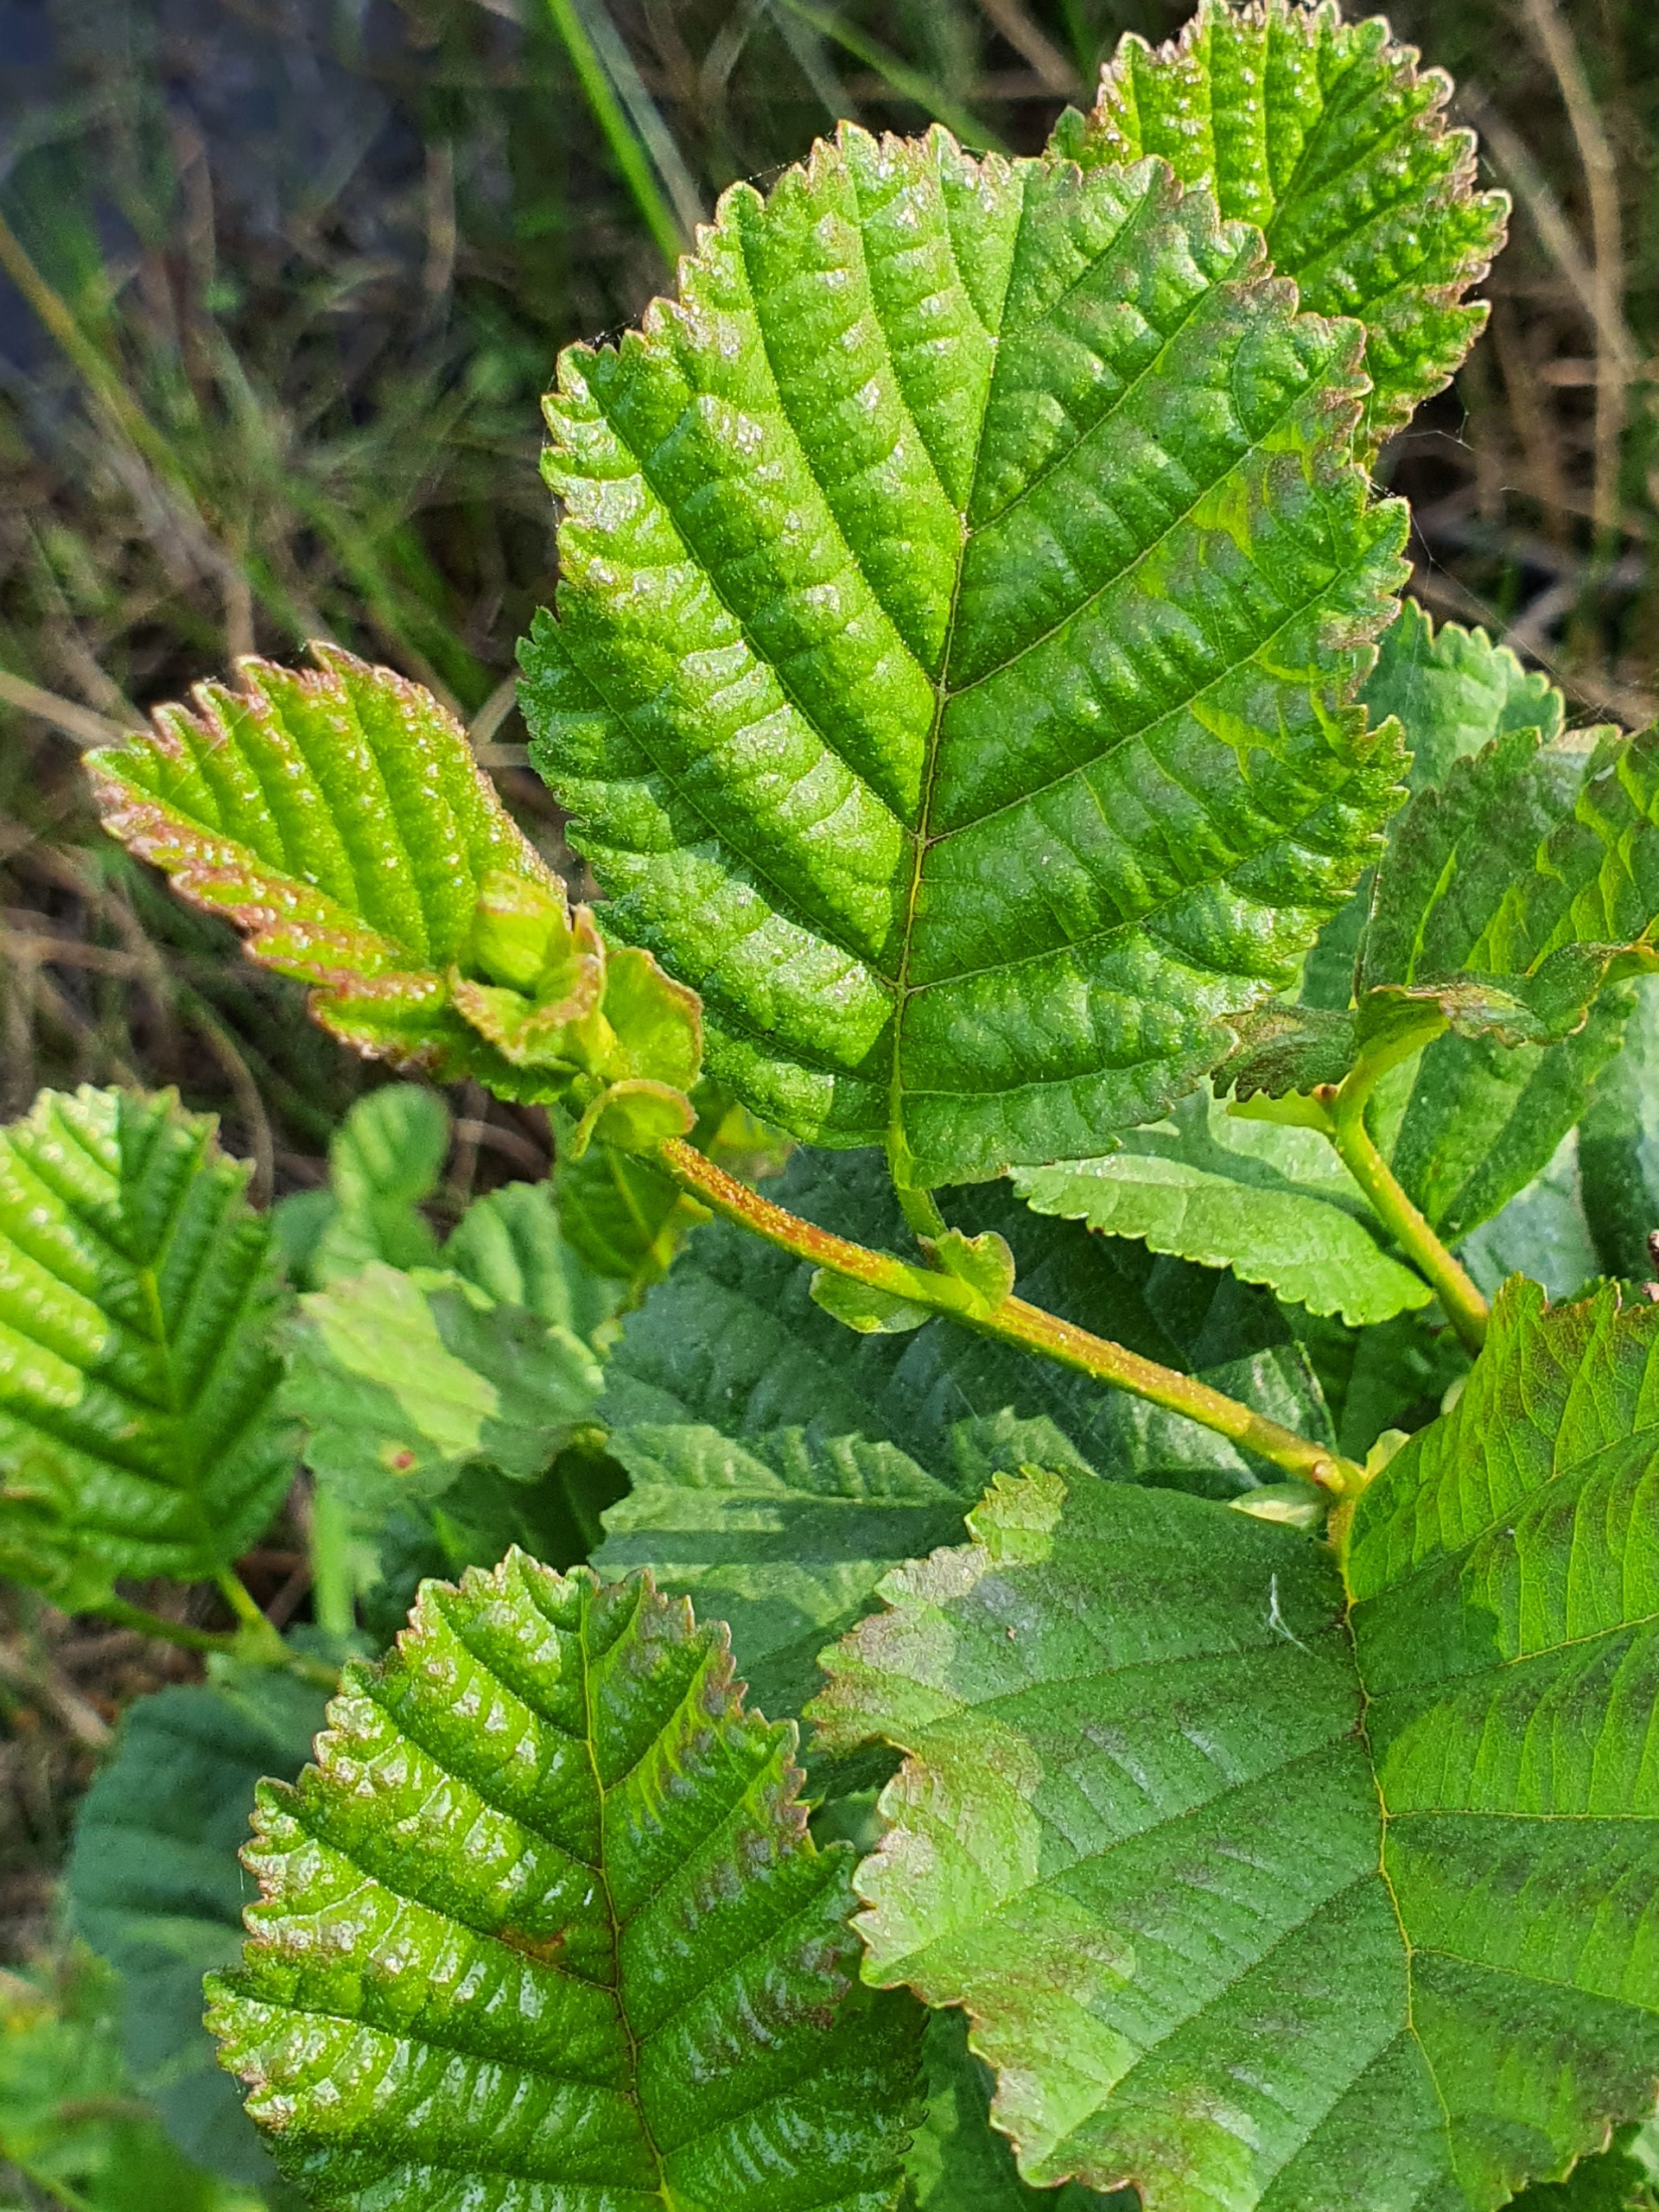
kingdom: Plantae
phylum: Tracheophyta
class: Magnoliopsida
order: Fagales
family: Betulaceae
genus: Alnus
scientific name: Alnus glutinosa
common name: Rød-el
